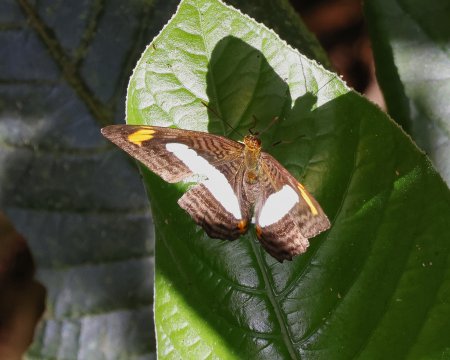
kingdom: Animalia
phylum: Arthropoda
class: Insecta
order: Lepidoptera
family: Nymphalidae
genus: Limenitis
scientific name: Limenitis Adelpha iphiclus
